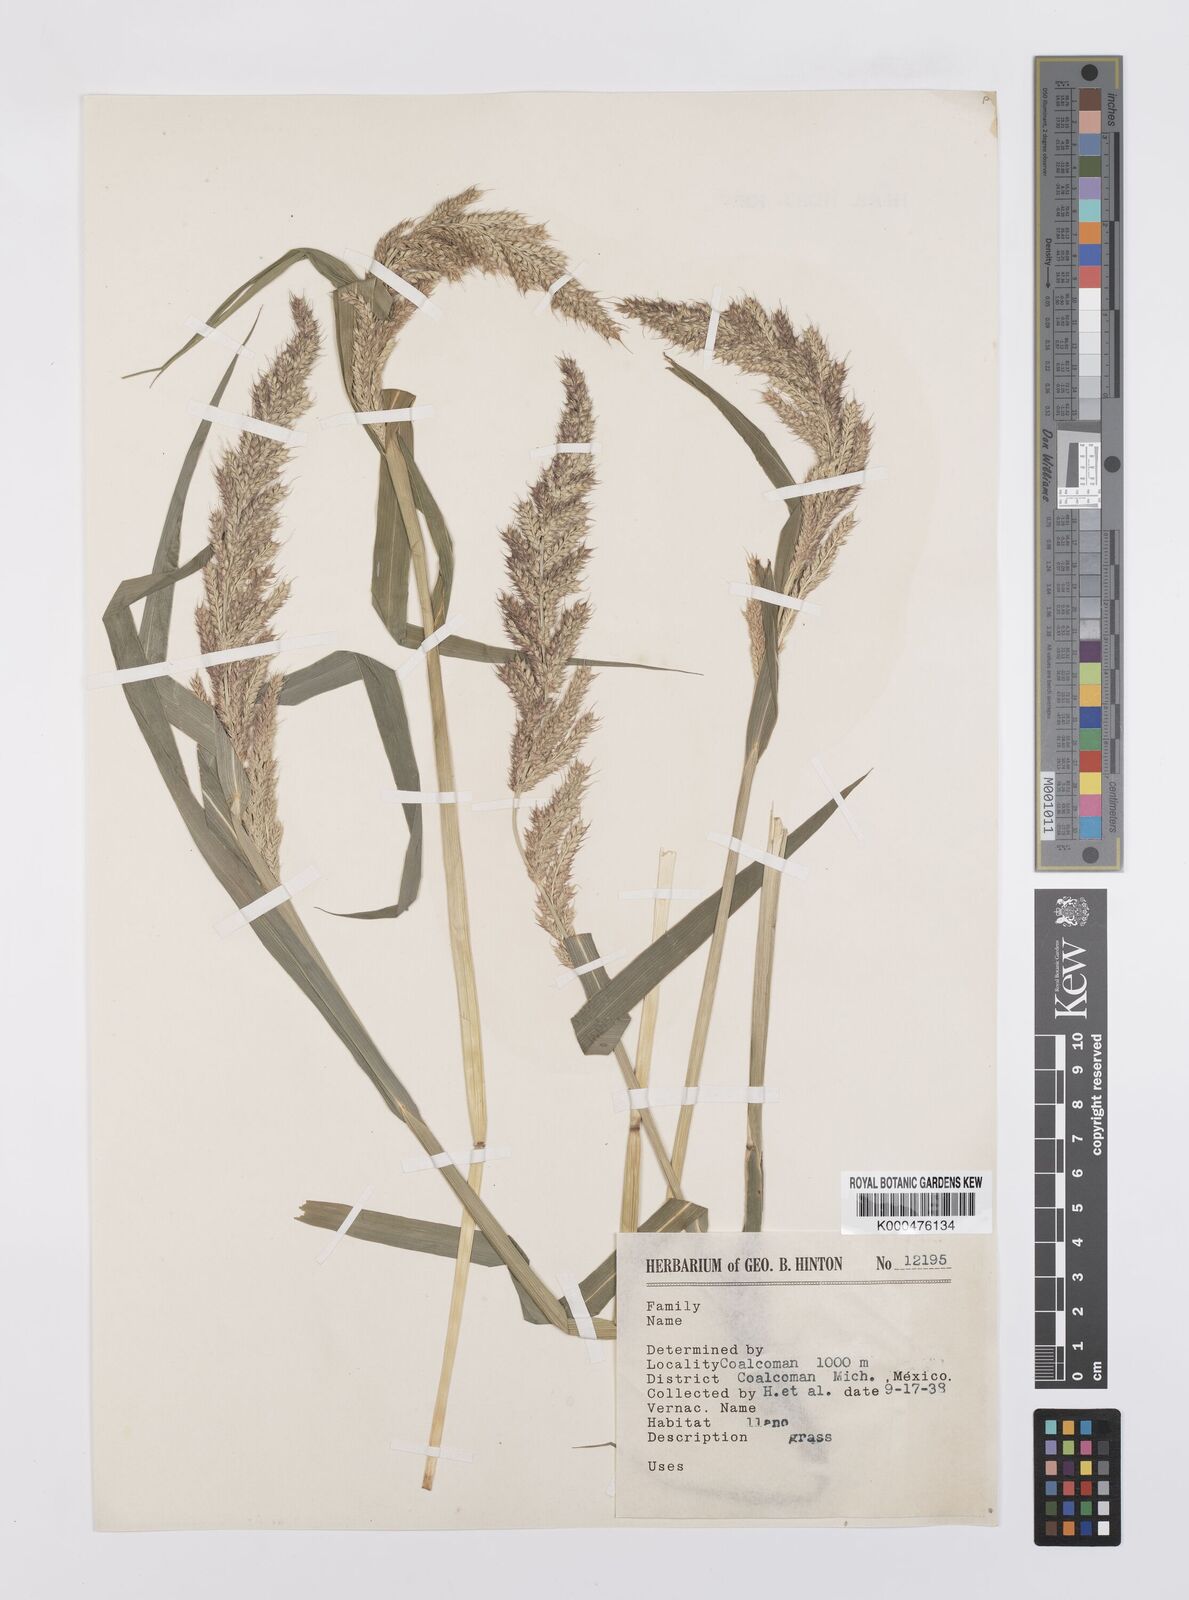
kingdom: Plantae
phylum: Tracheophyta
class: Liliopsida
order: Poales
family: Poaceae
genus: Echinochloa
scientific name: Echinochloa crus-pavonis
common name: Gulf cockspur grass
